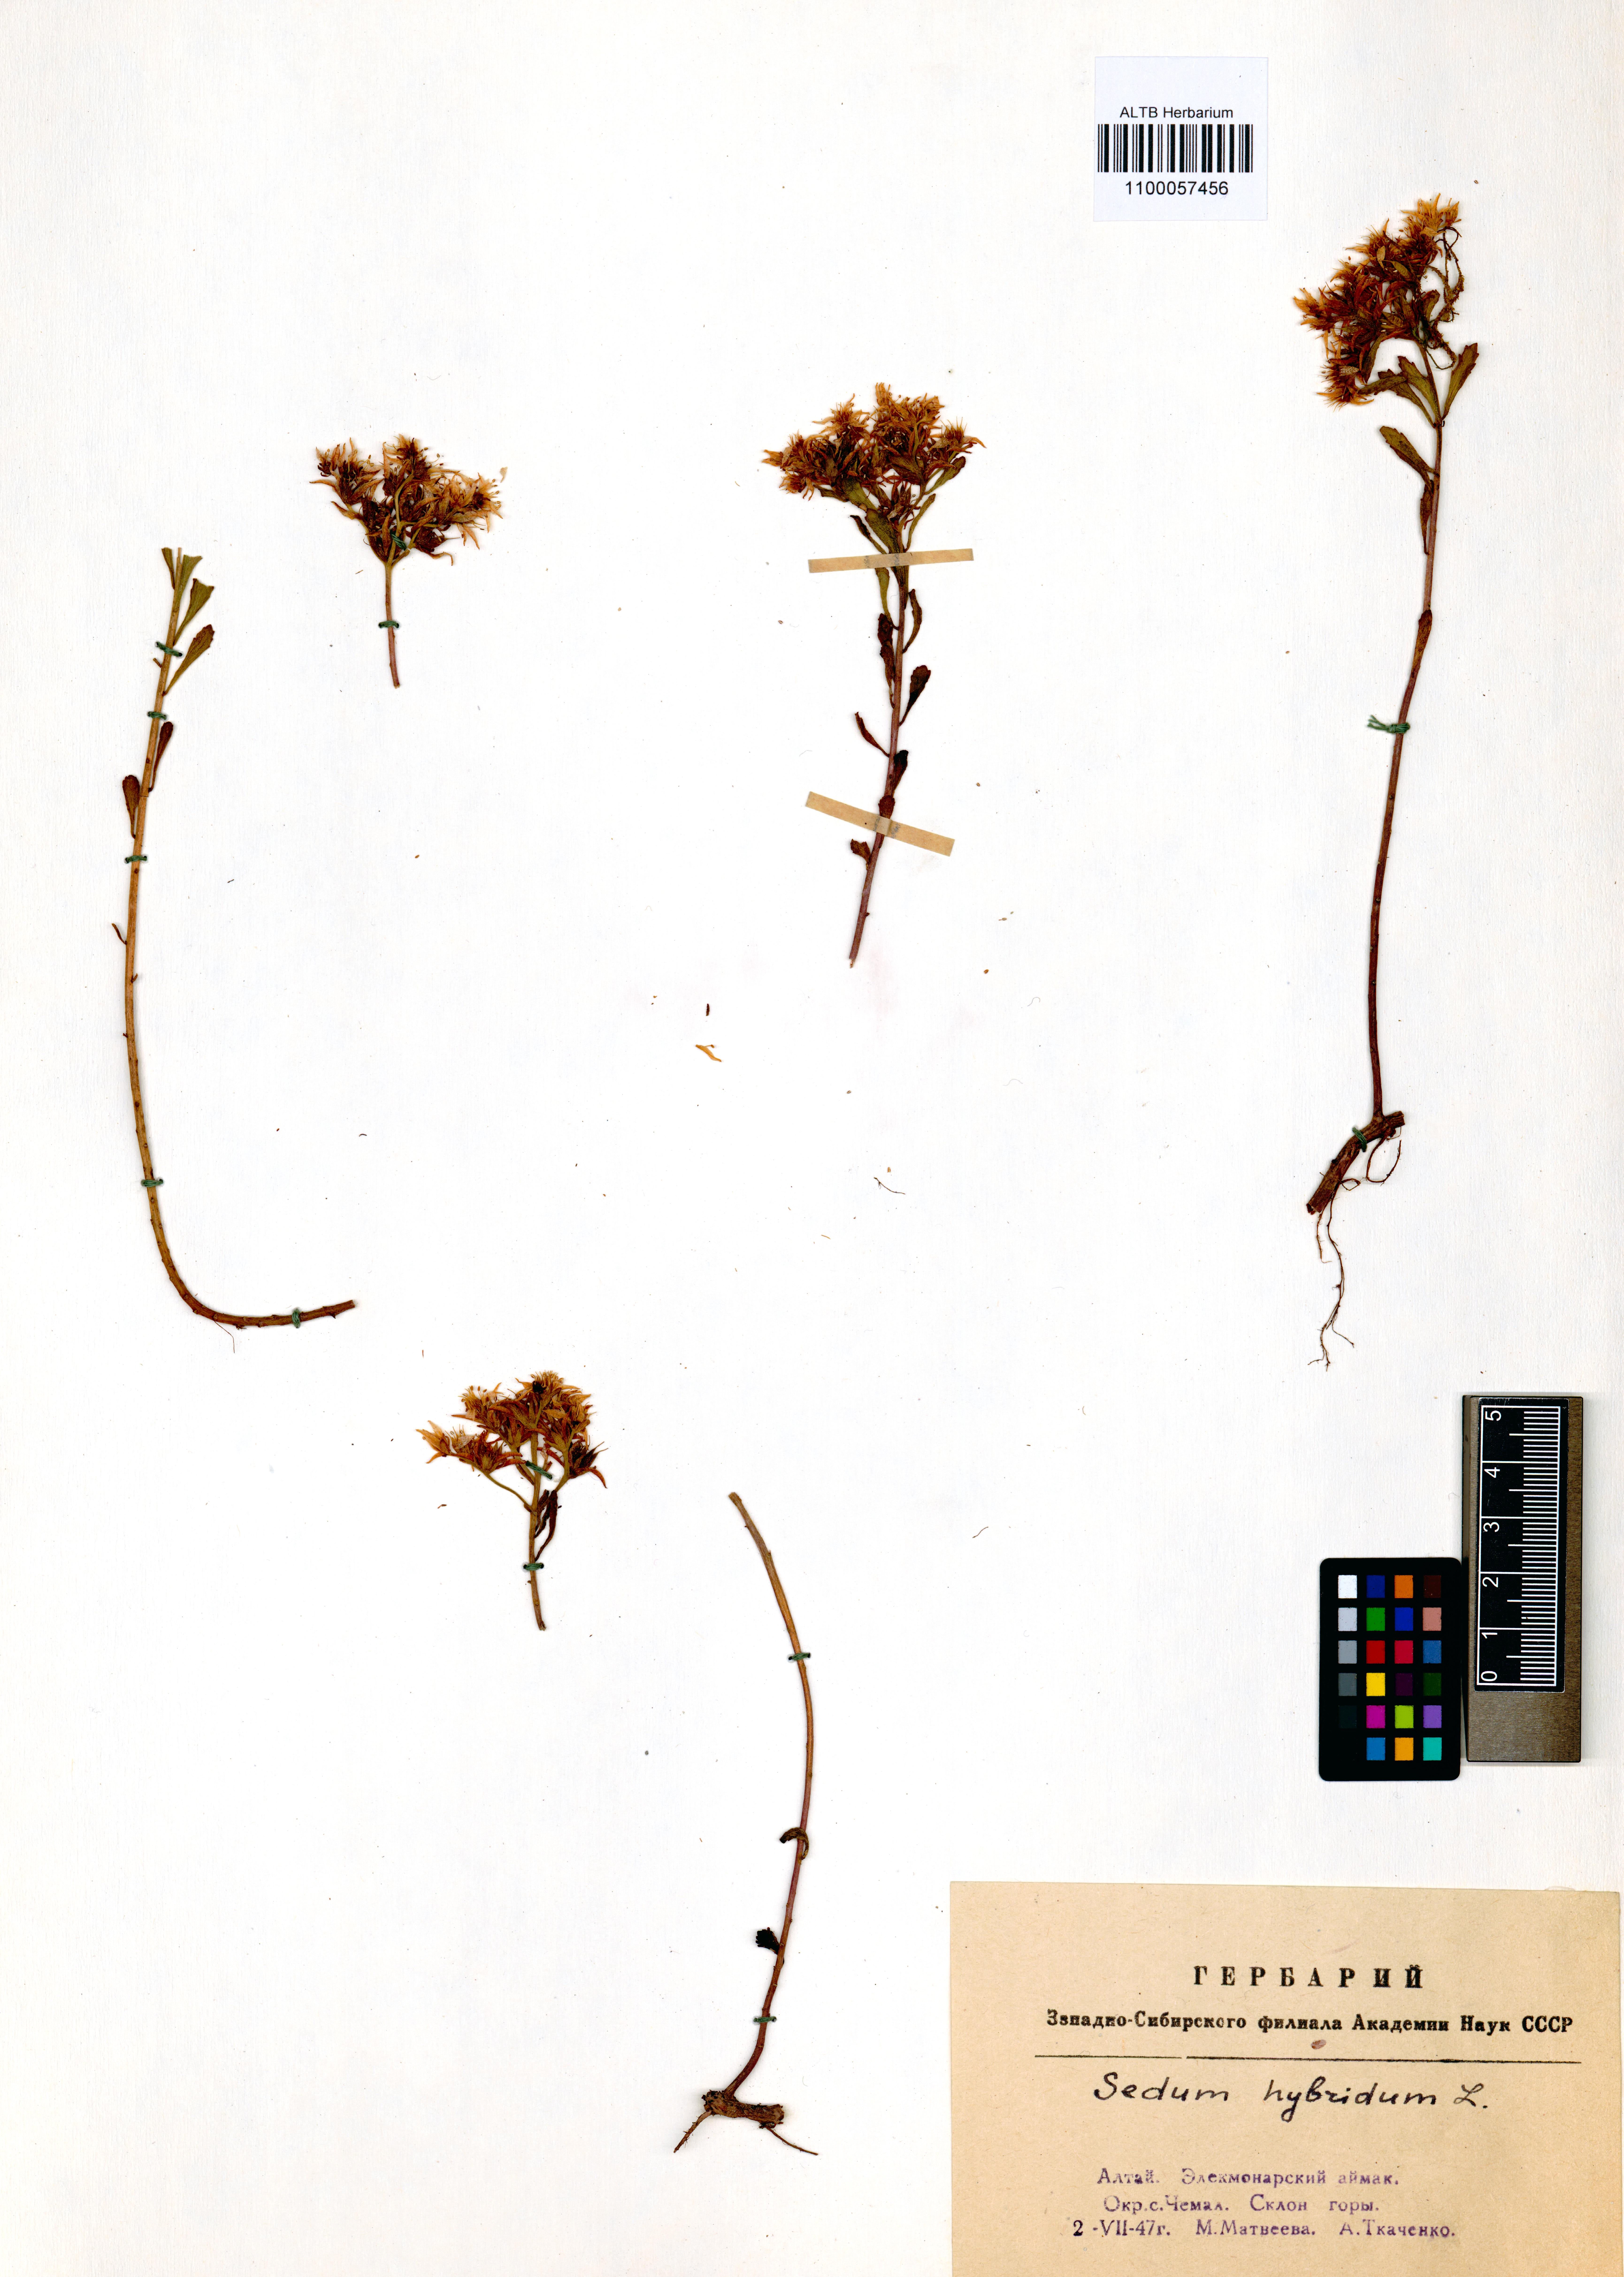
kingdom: Plantae
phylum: Tracheophyta
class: Magnoliopsida
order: Saxifragales
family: Crassulaceae
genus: Phedimus
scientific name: Phedimus hybridus
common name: Hybrid stonecrop
